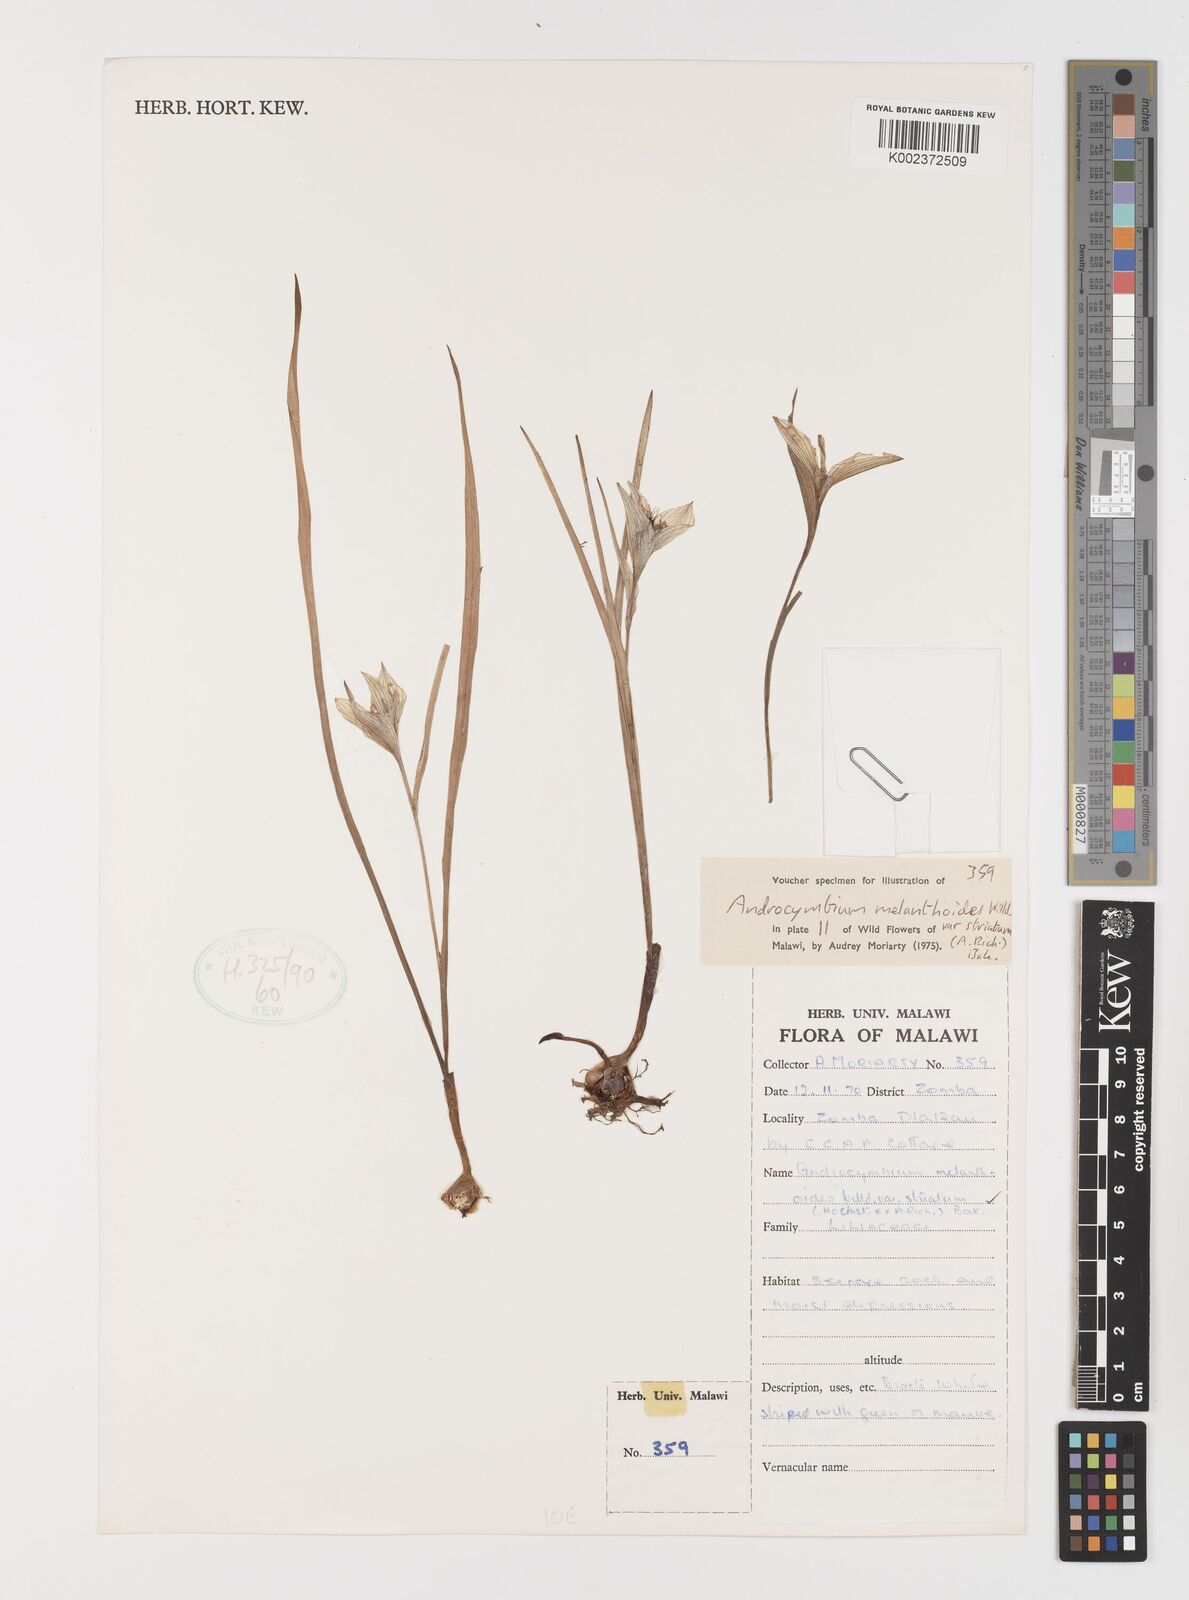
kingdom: Plantae
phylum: Tracheophyta
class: Liliopsida
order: Liliales
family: Colchicaceae
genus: Colchicum
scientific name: Colchicum melanthioides
